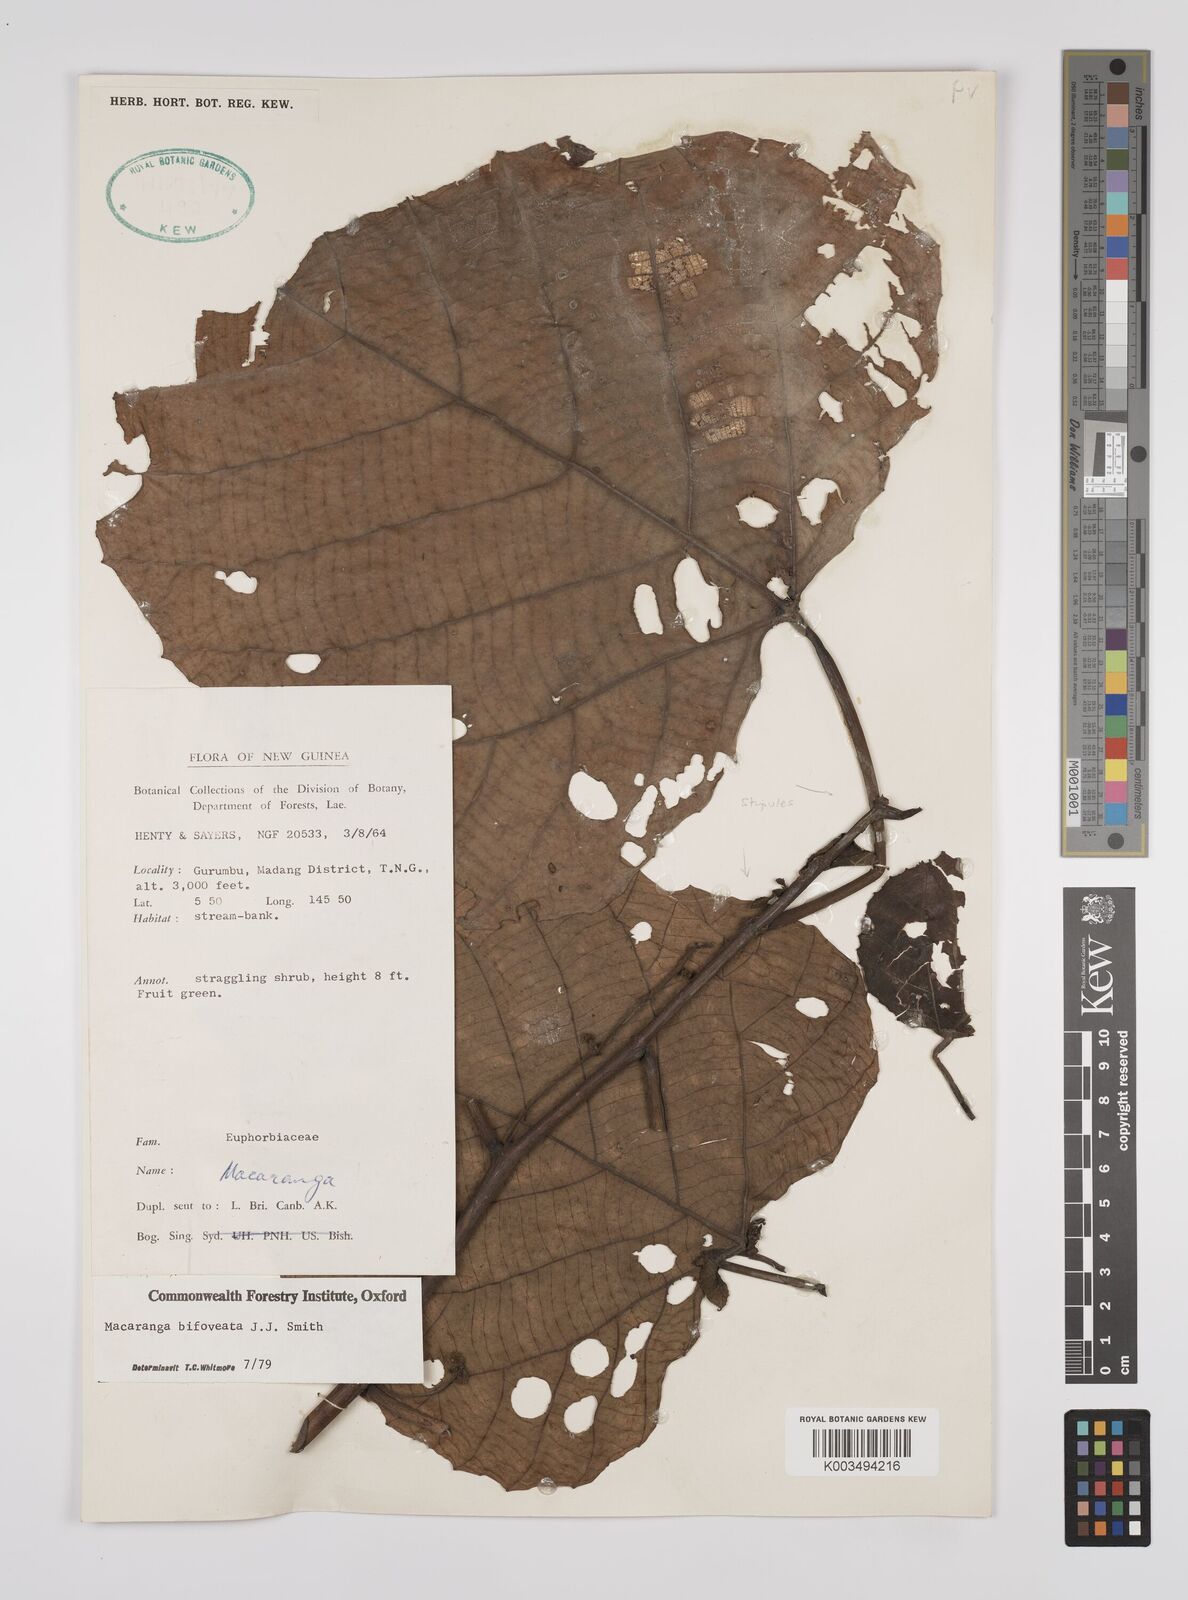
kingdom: Plantae
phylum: Tracheophyta
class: Magnoliopsida
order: Malpighiales
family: Euphorbiaceae
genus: Macaranga
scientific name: Macaranga bifoveata
